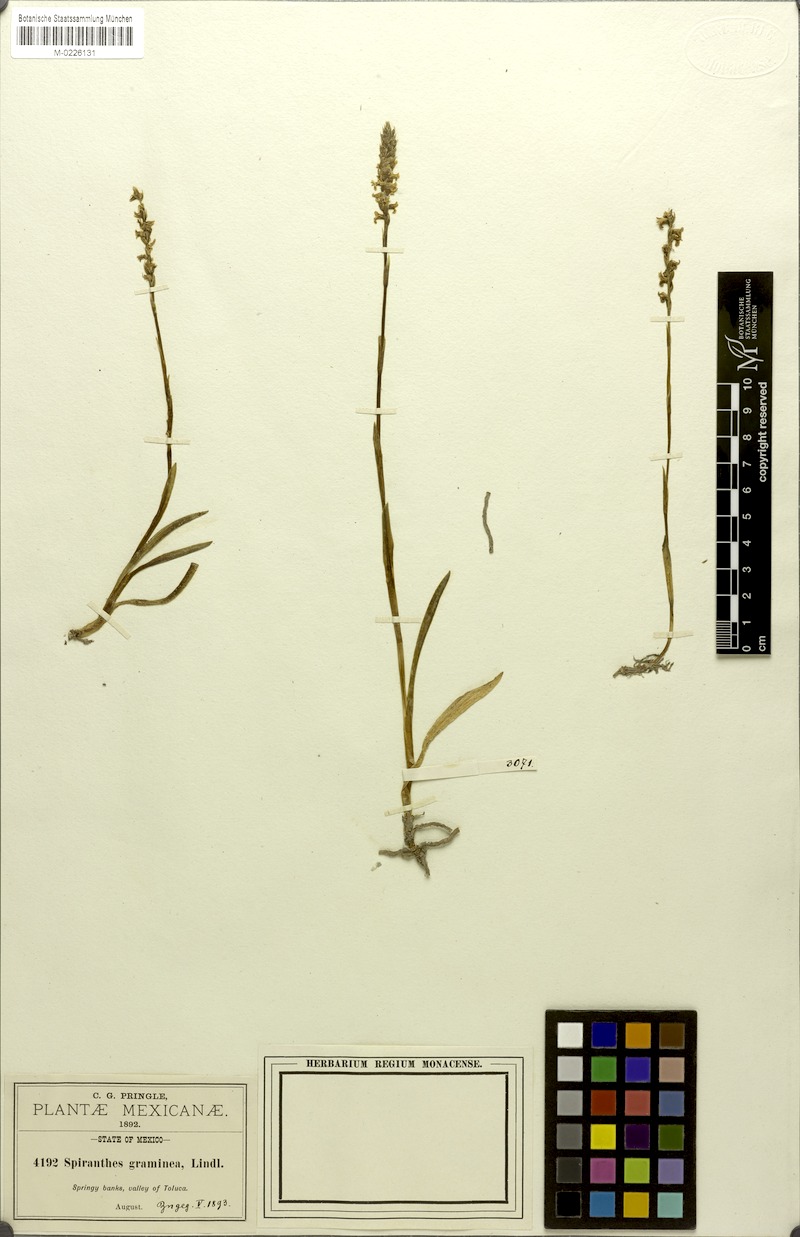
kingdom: Plantae
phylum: Tracheophyta
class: Liliopsida
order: Asparagales
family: Orchidaceae
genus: Spiranthes
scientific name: Spiranthes graminea
